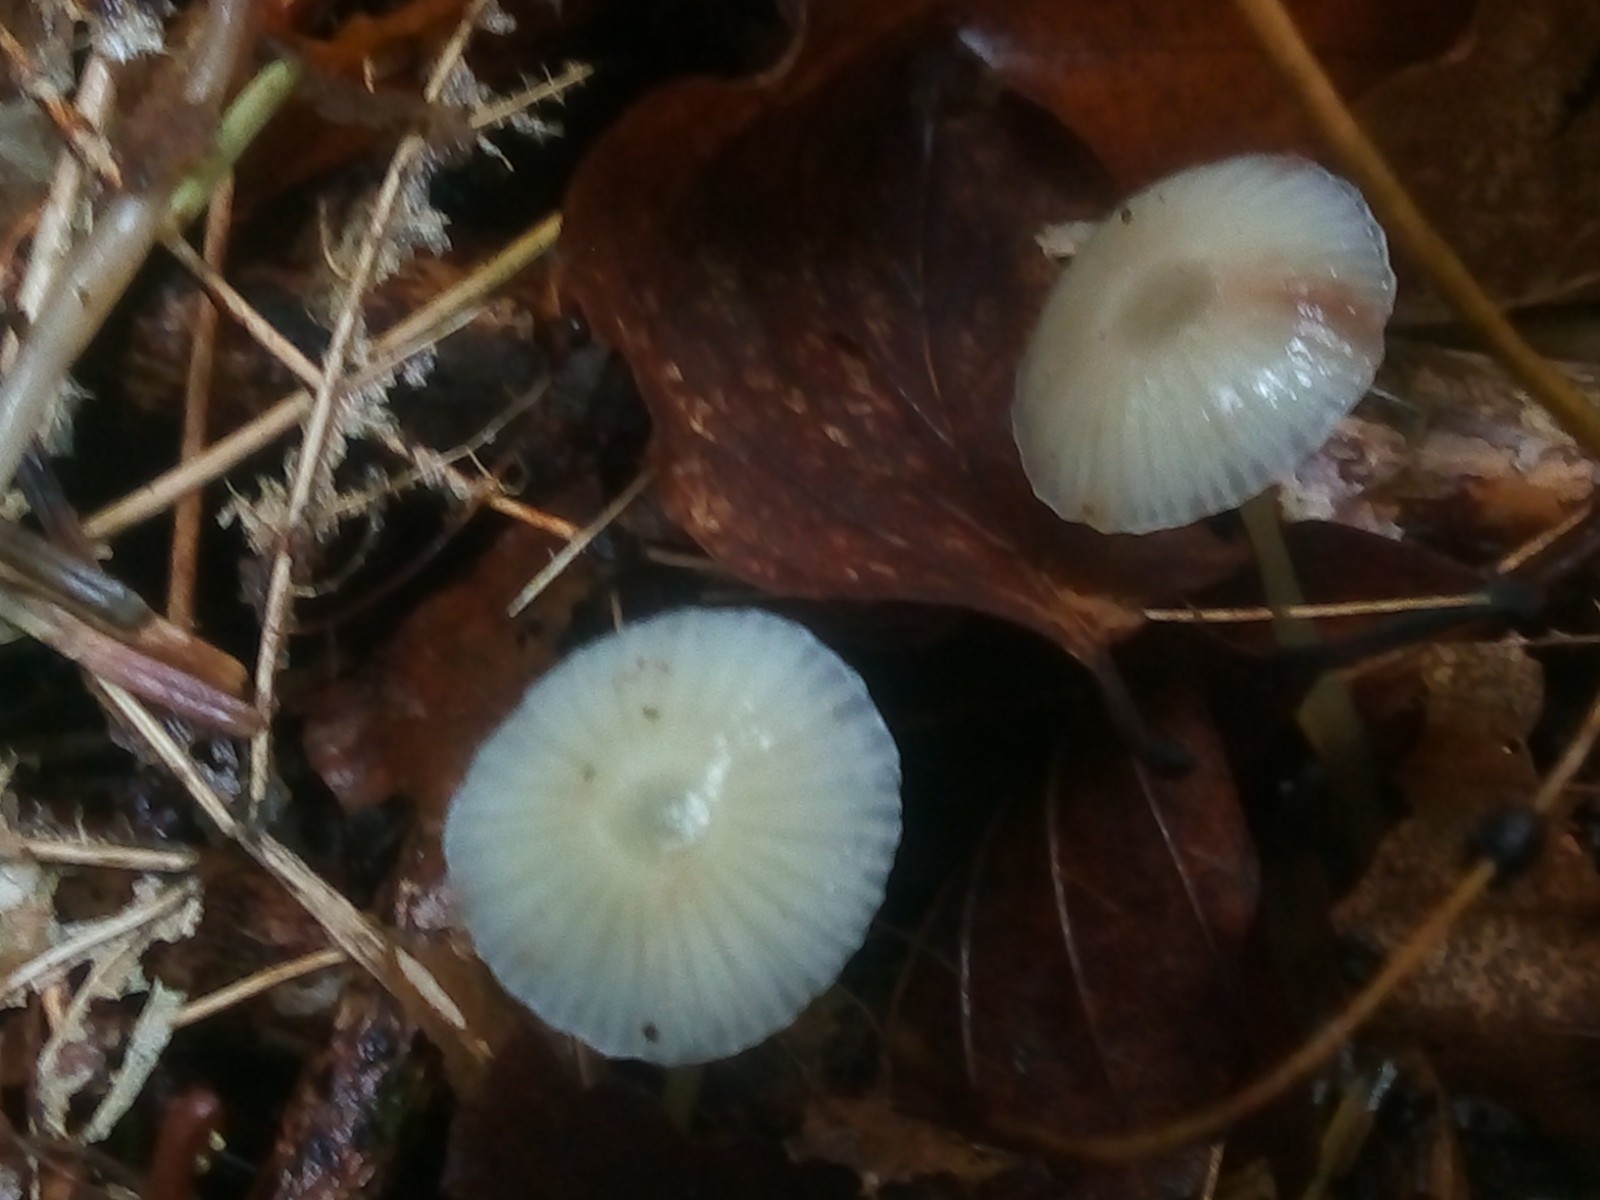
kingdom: Fungi
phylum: Basidiomycota
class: Agaricomycetes
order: Agaricales
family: Mycenaceae
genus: Mycena
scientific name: Mycena epipterygia
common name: gulstokket huesvamp
